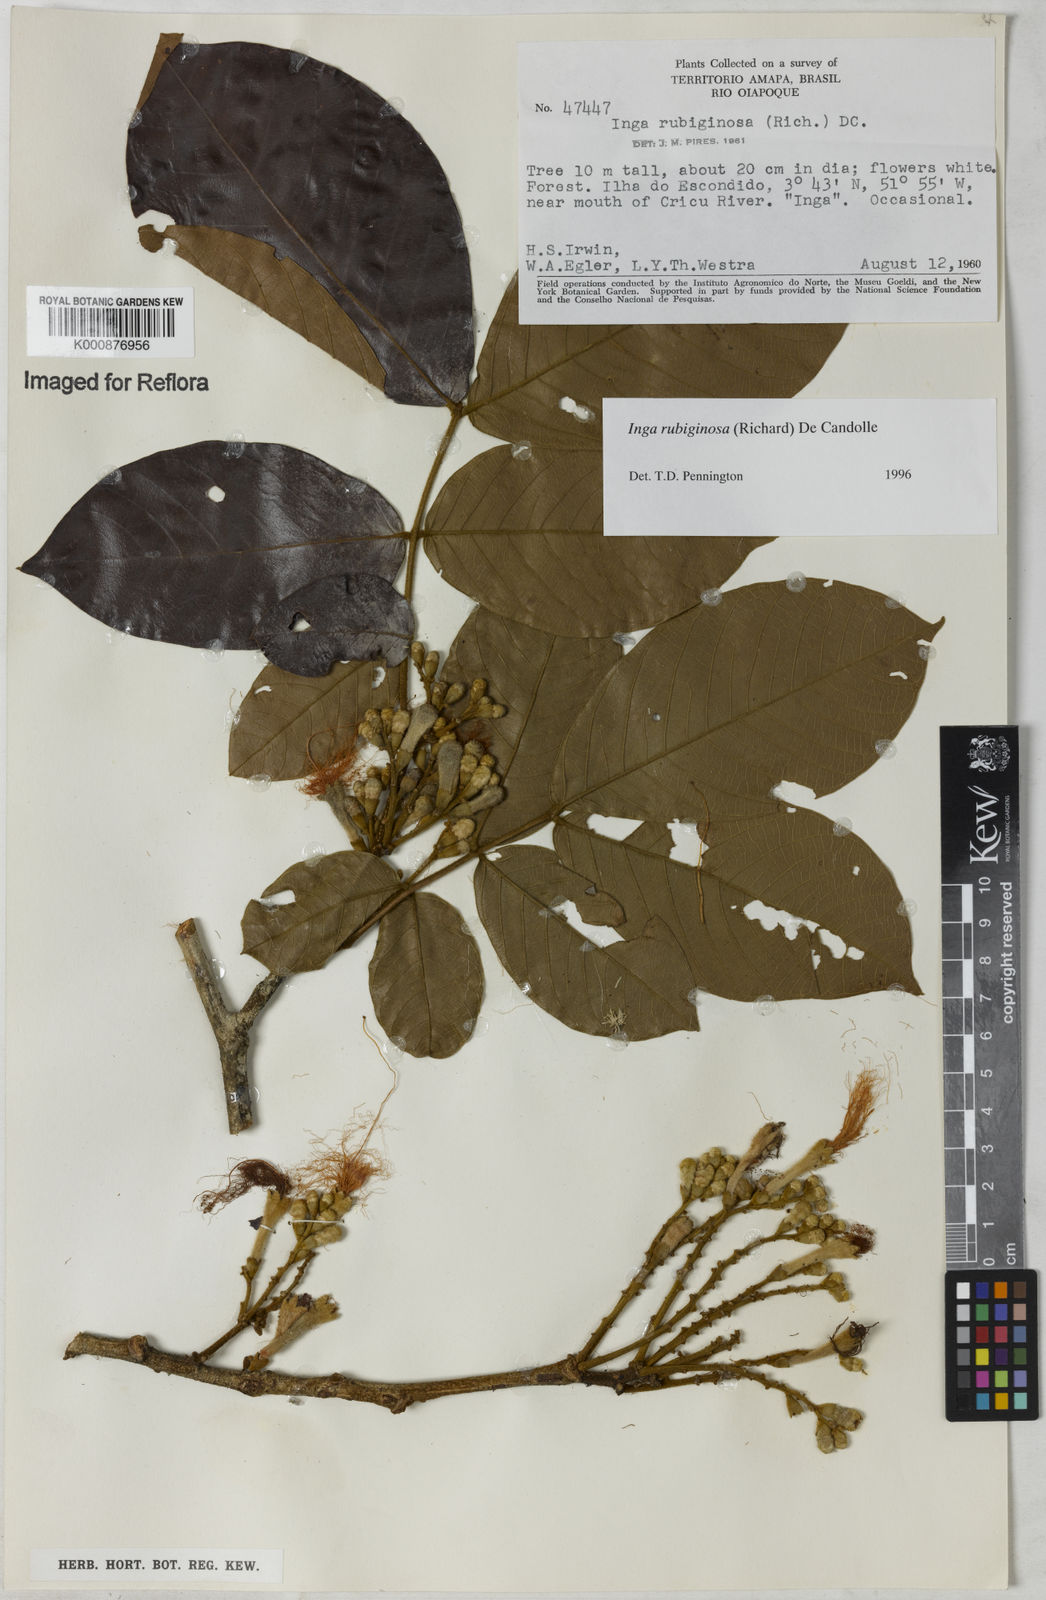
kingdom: Plantae
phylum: Tracheophyta
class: Magnoliopsida
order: Fabales
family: Fabaceae
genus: Inga
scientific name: Inga rubiginosa
